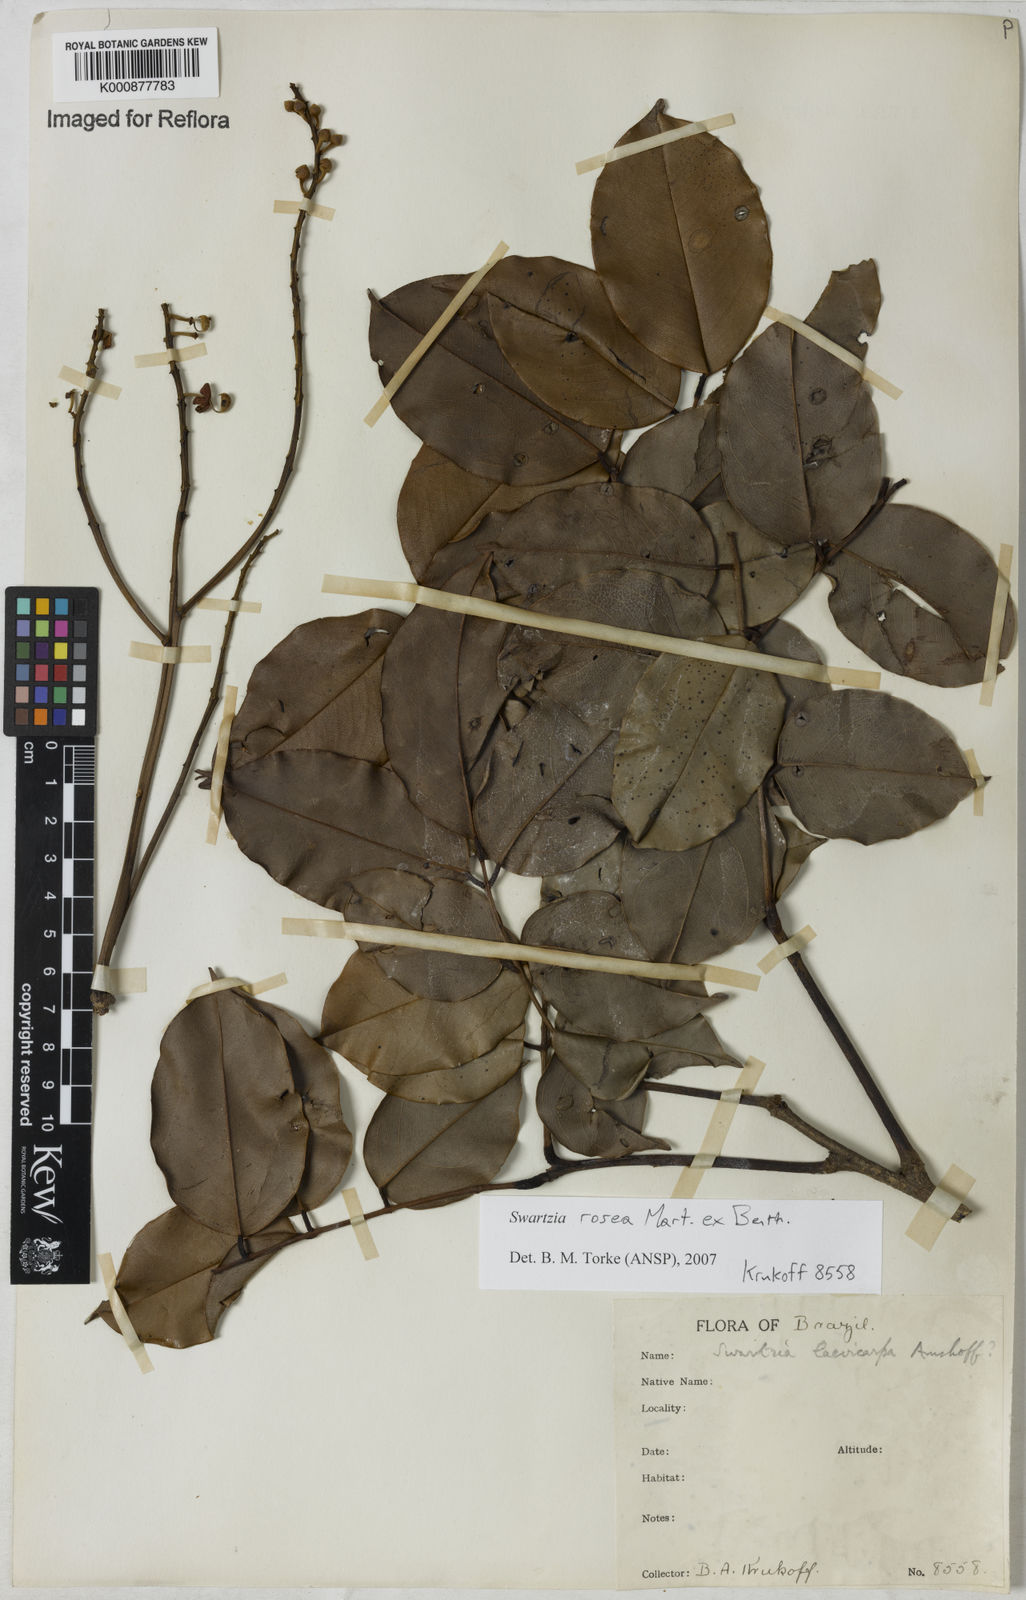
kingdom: Plantae
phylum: Tracheophyta
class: Magnoliopsida
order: Fabales
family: Fabaceae
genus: Swartzia
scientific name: Swartzia rosea
